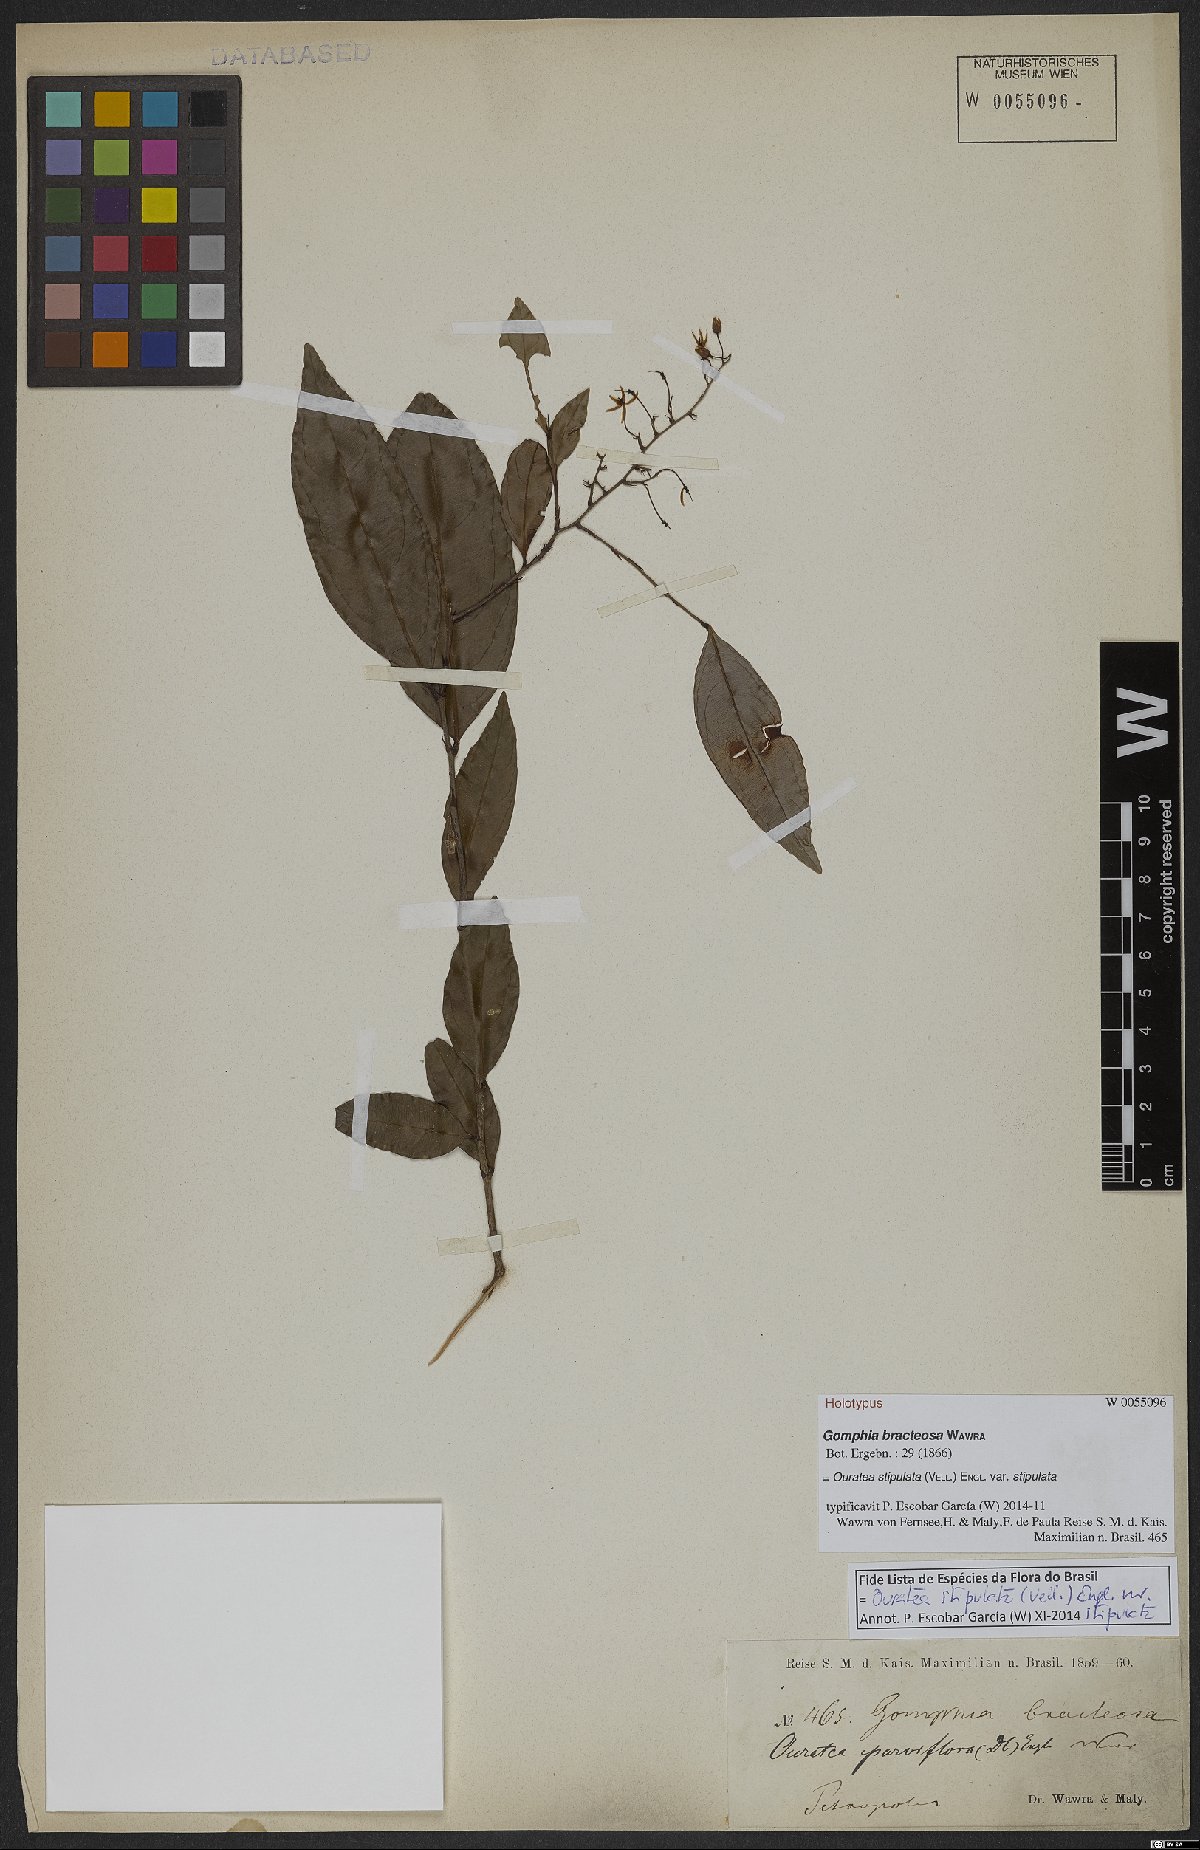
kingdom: Plantae
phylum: Tracheophyta
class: Magnoliopsida
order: Malpighiales
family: Ochnaceae
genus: Ouratea
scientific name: Ouratea stipulata
